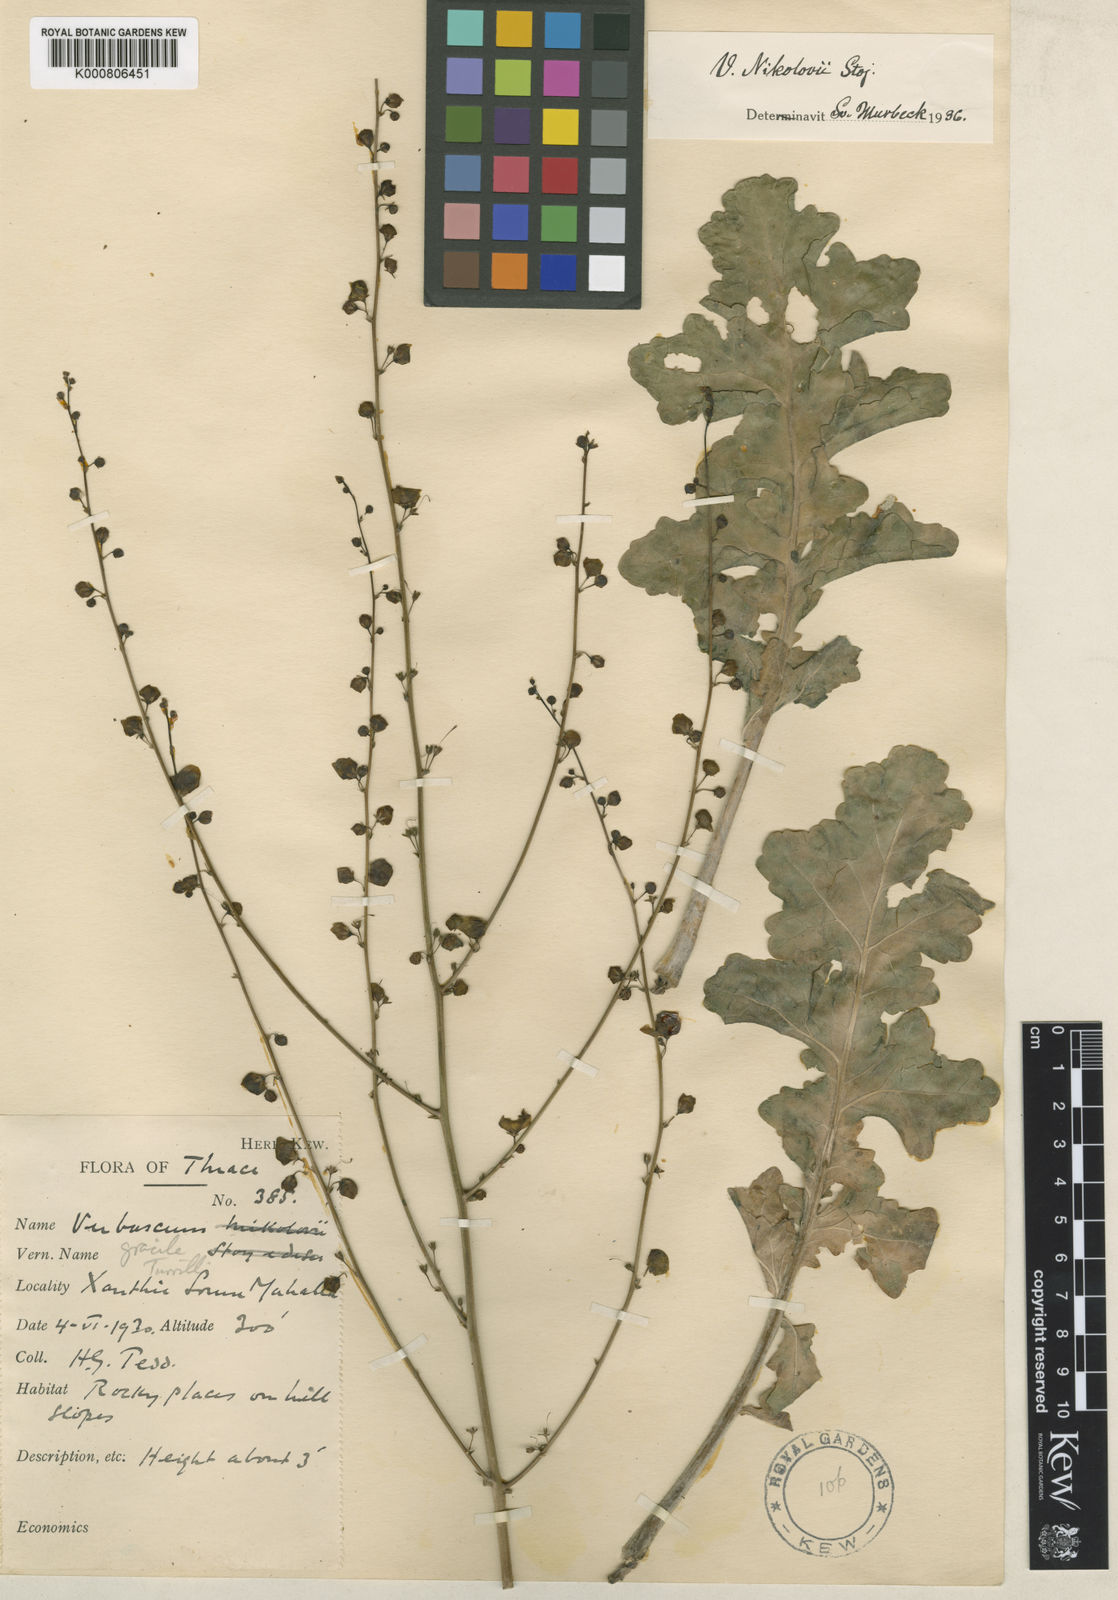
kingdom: Plantae
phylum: Tracheophyta
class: Magnoliopsida
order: Lamiales
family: Scrophulariaceae
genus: Verbascum
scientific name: Verbascum graecum
